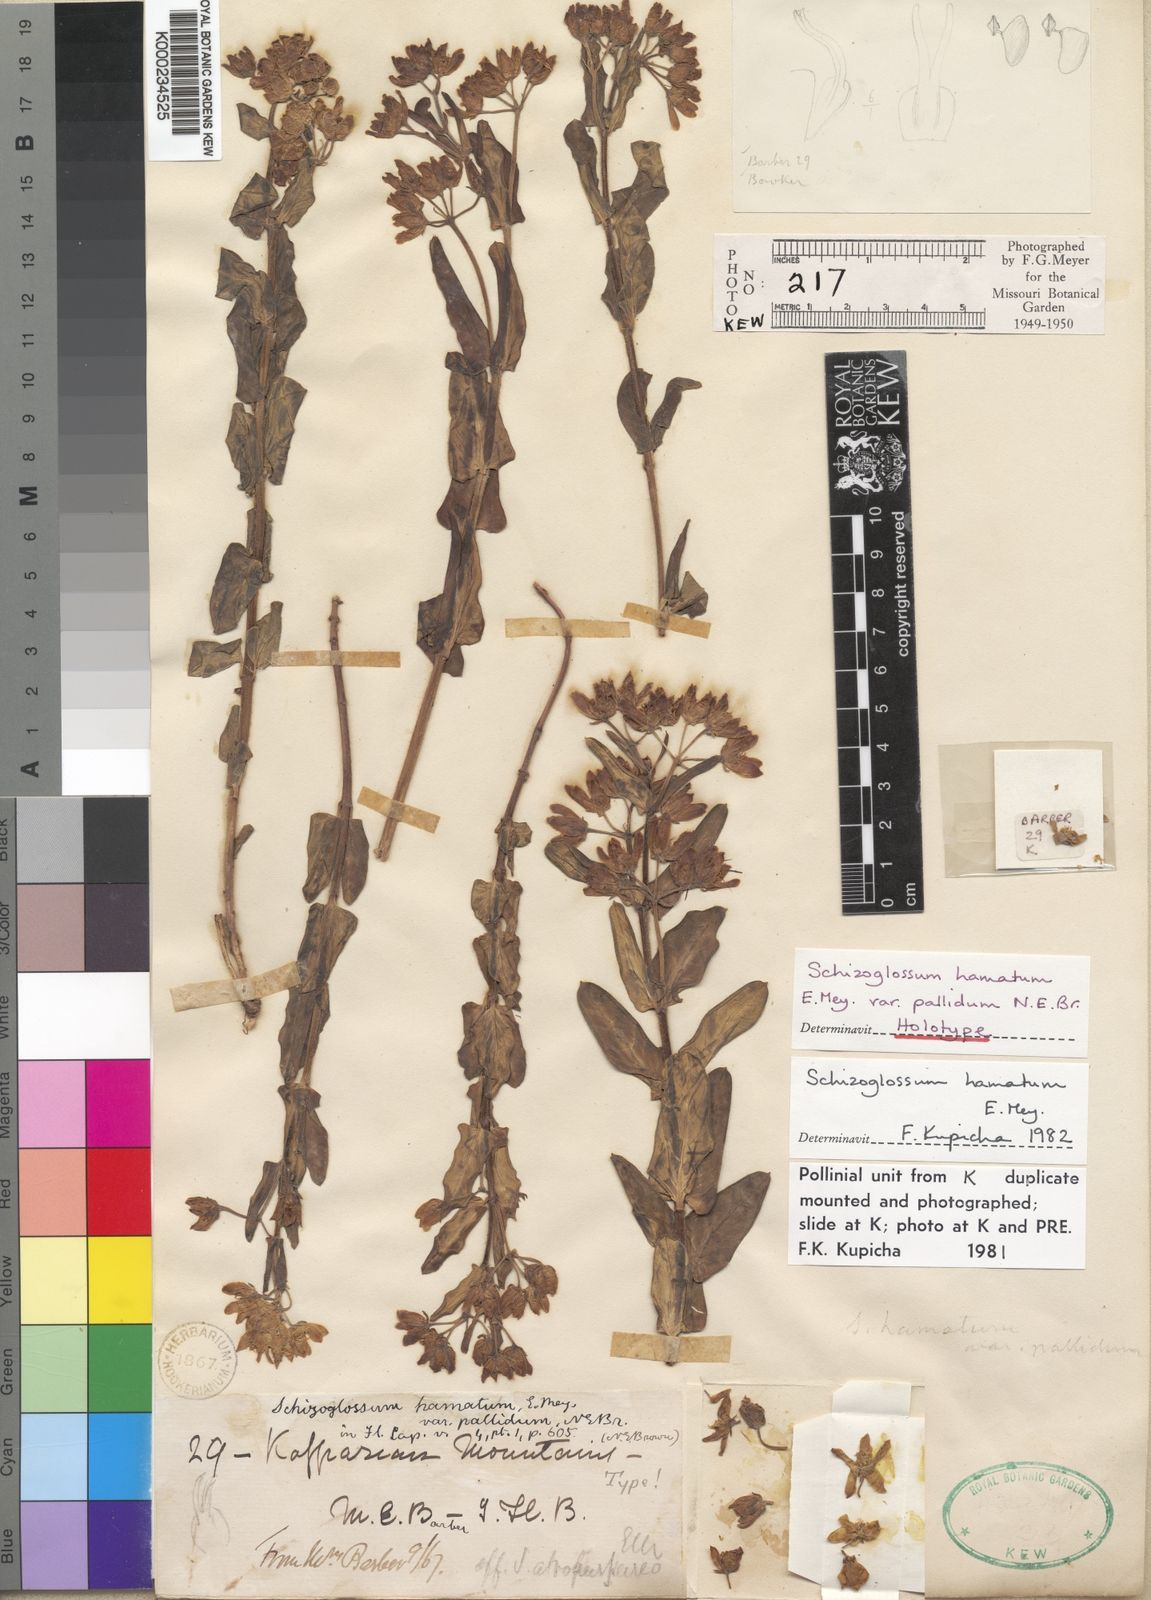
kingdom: Plantae
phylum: Tracheophyta
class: Magnoliopsida
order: Gentianales
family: Apocynaceae
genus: Schizoglossum
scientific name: Schizoglossum hamatum
